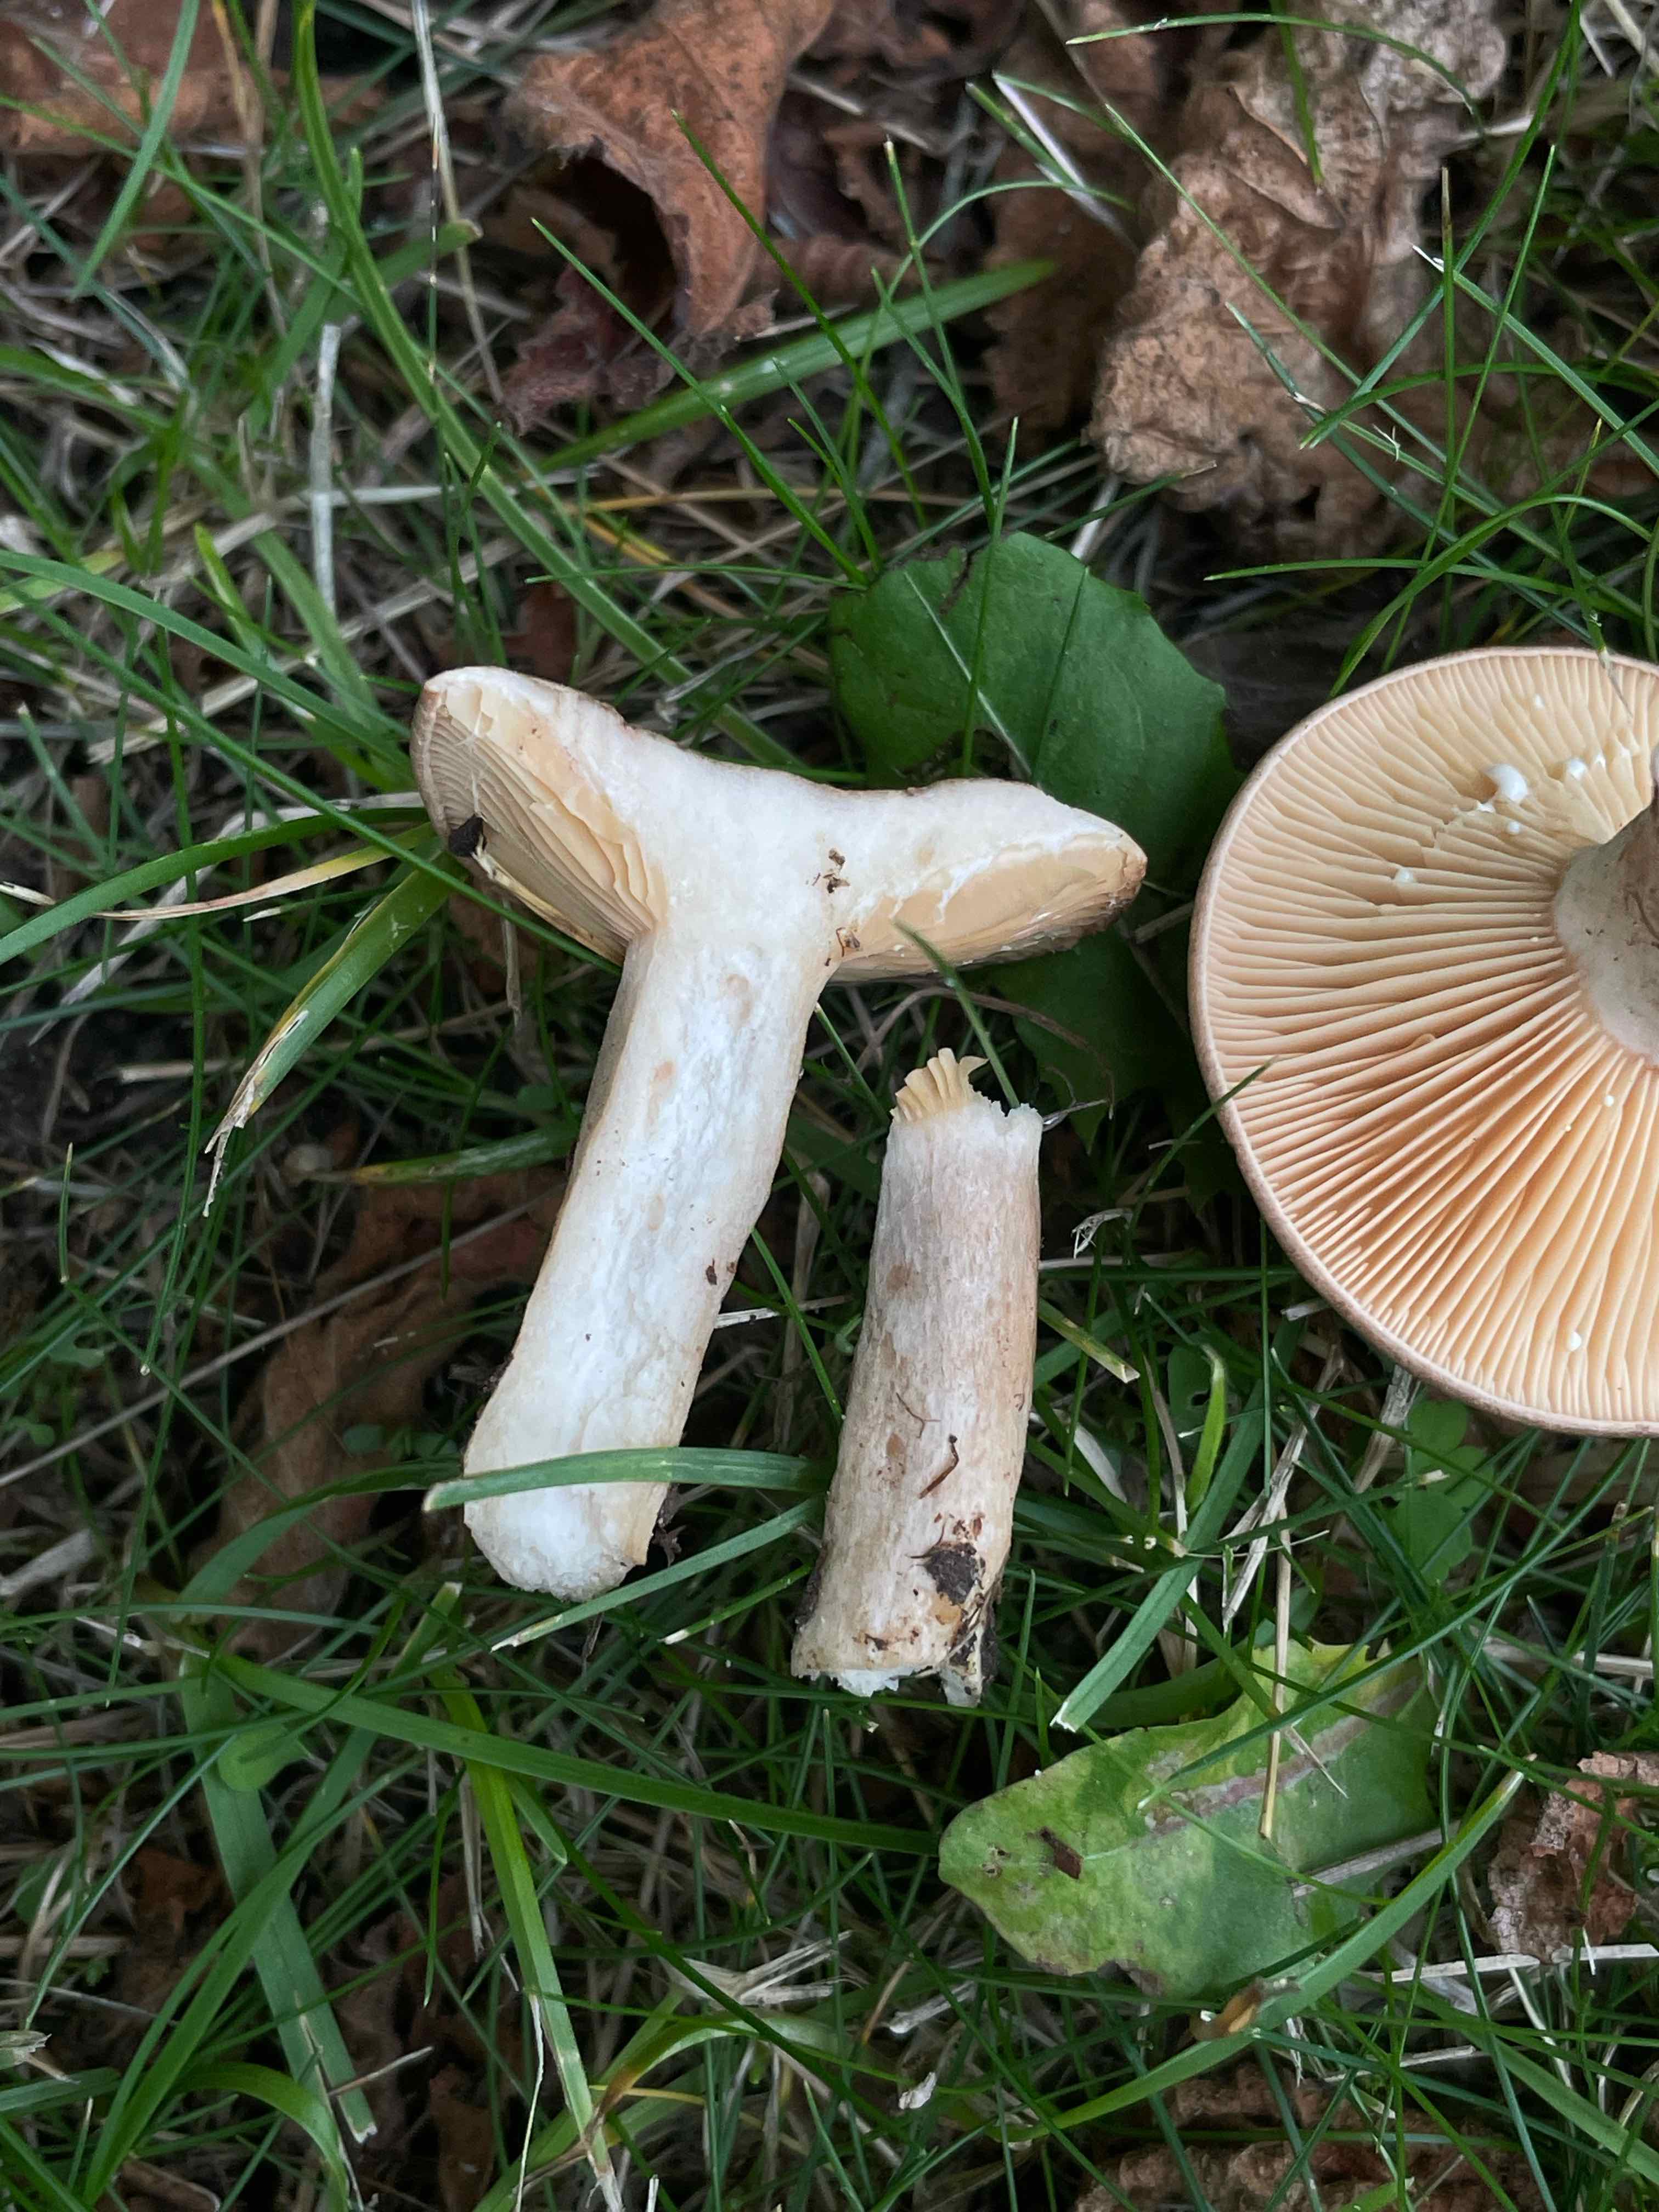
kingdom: Fungi
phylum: Basidiomycota
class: Agaricomycetes
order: Russulales
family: Russulaceae
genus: Lactarius
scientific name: Lactarius pyrogalus
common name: hassel-mælkehat
